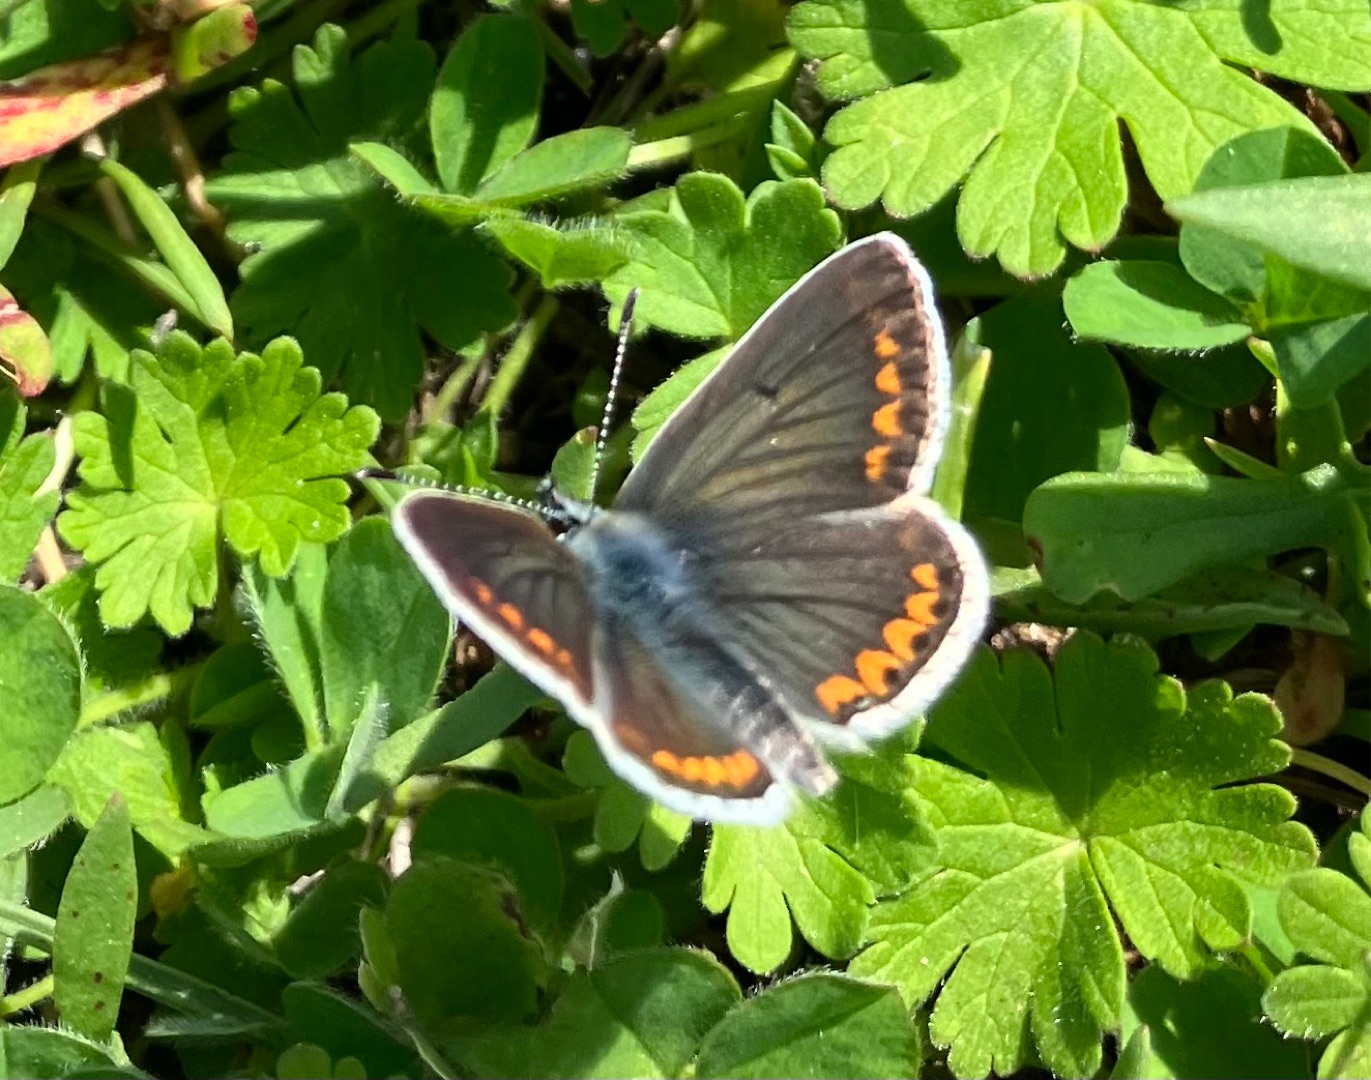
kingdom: Animalia
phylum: Arthropoda
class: Insecta
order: Lepidoptera
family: Lycaenidae
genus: Aricia
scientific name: Aricia agestis
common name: Rødplettet blåfugl
